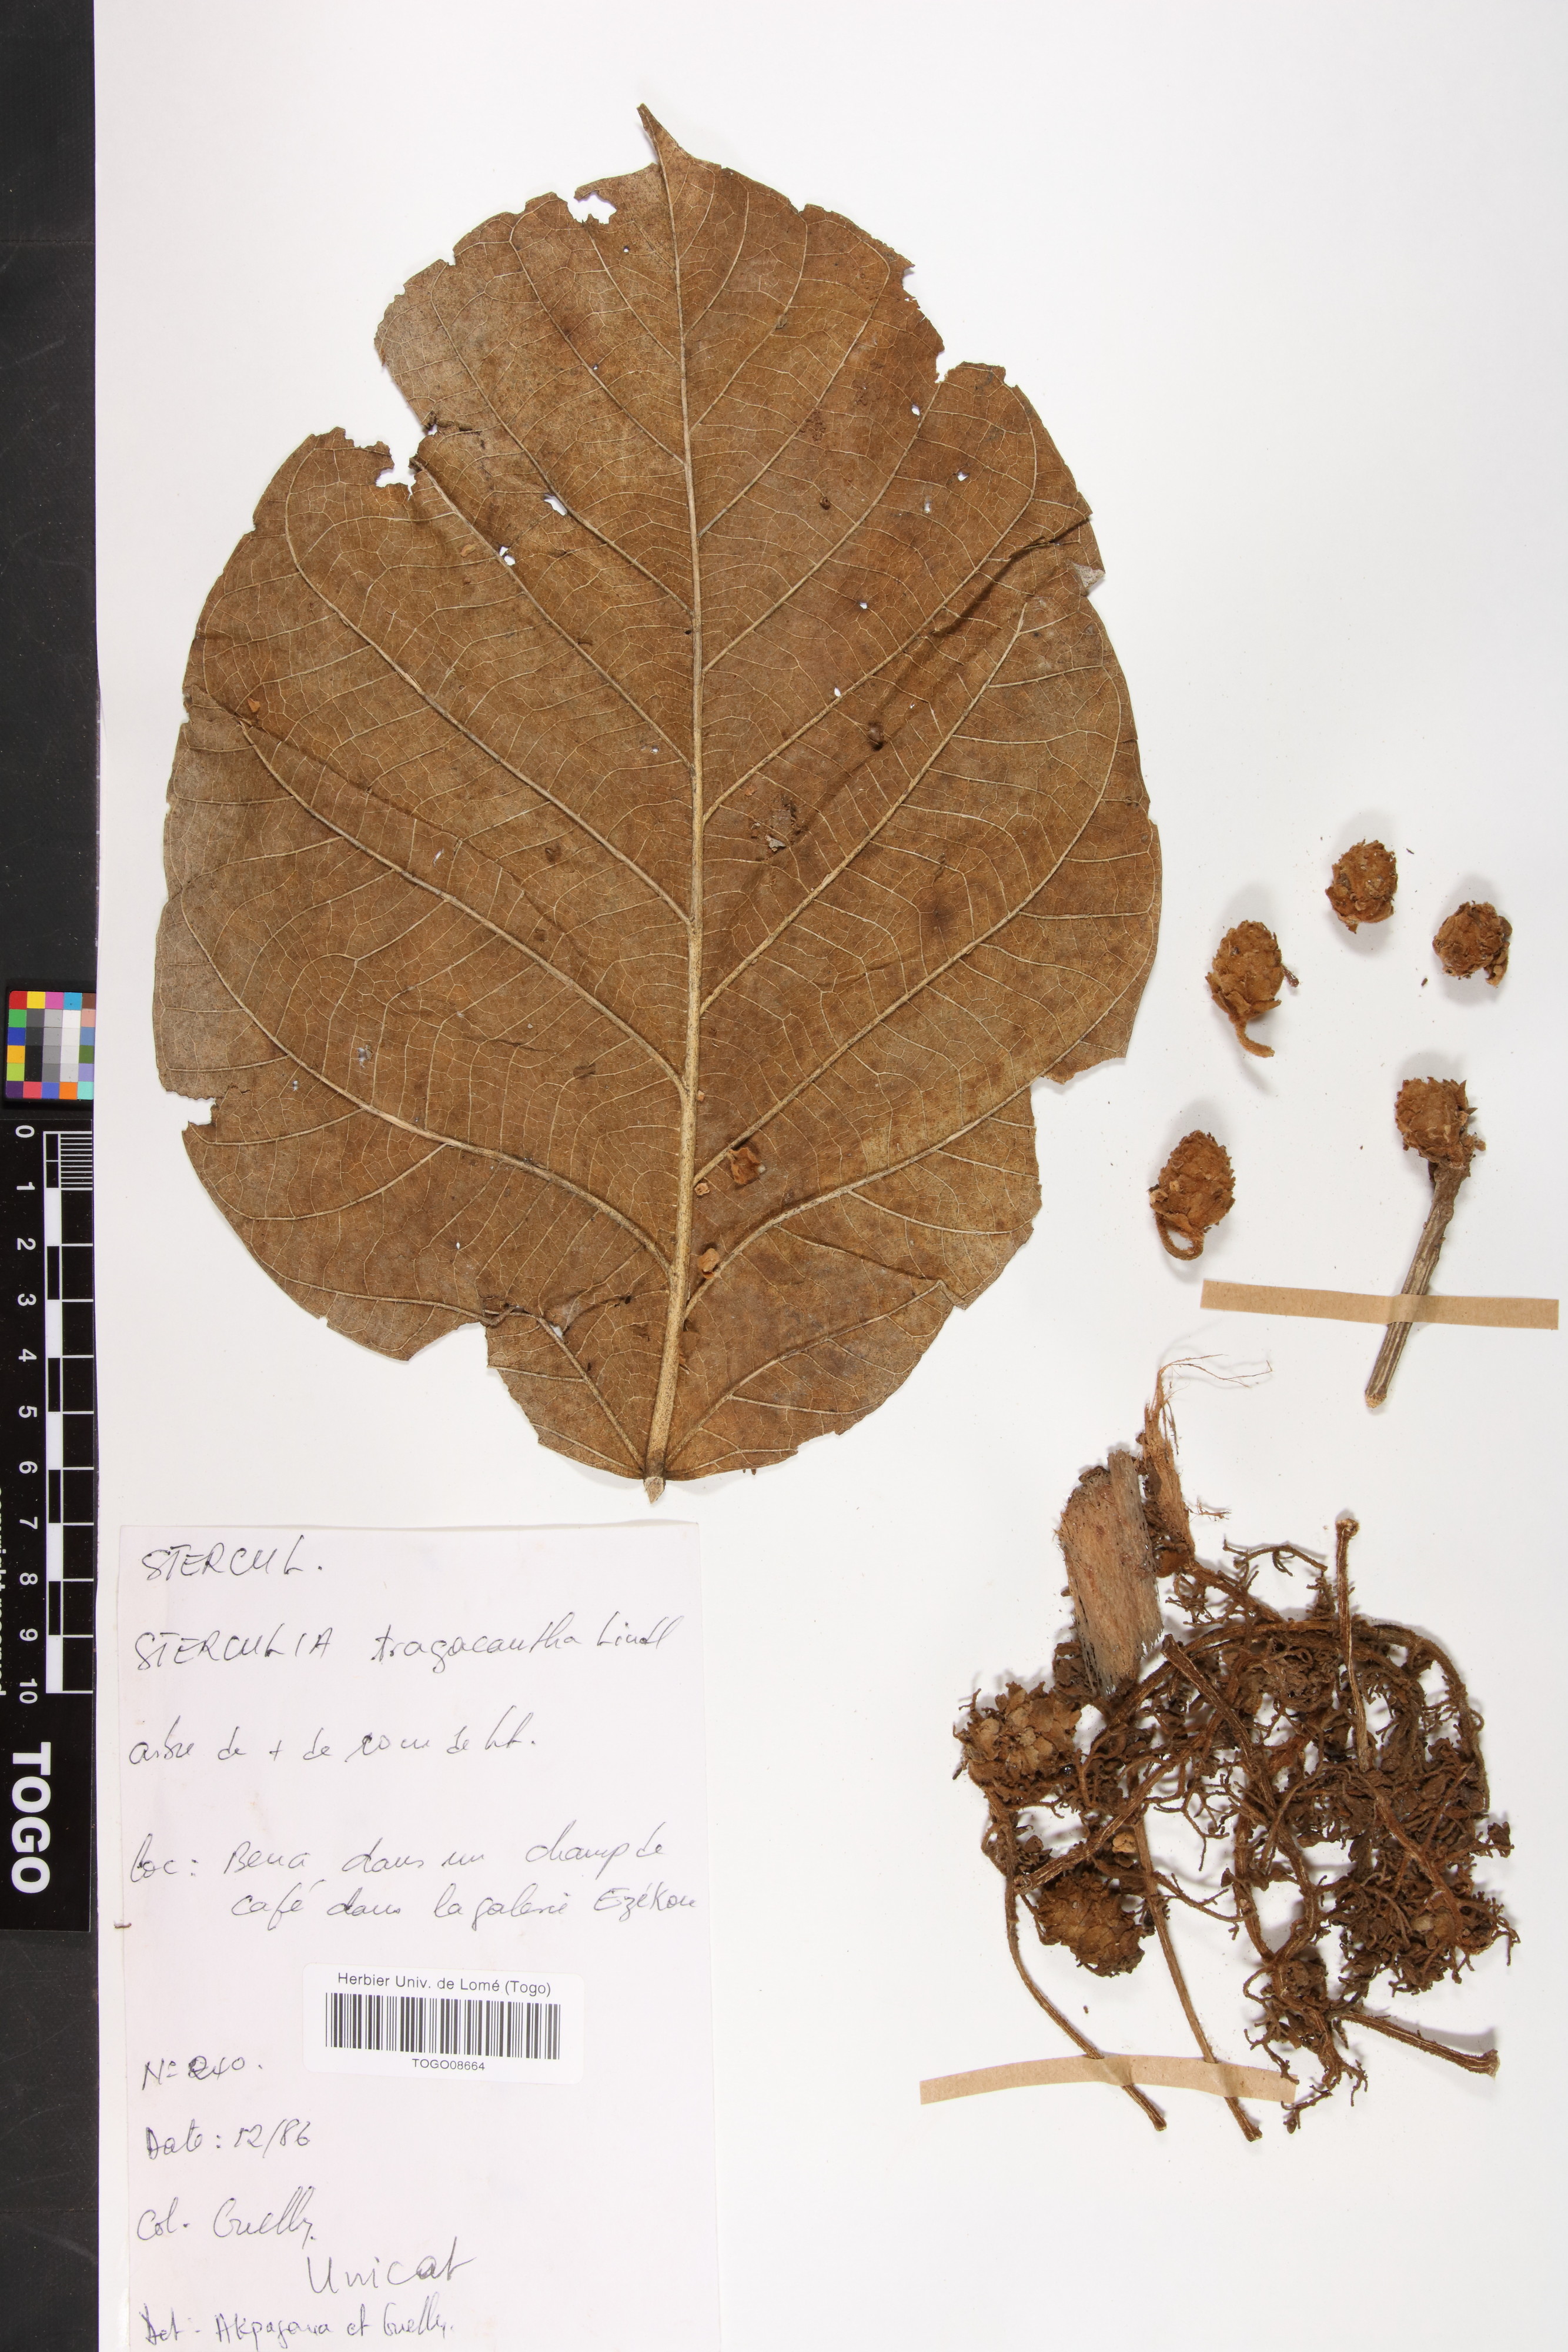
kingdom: Plantae
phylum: Tracheophyta
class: Magnoliopsida
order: Malvales
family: Malvaceae
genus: Sterculia
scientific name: Sterculia tragacantha
